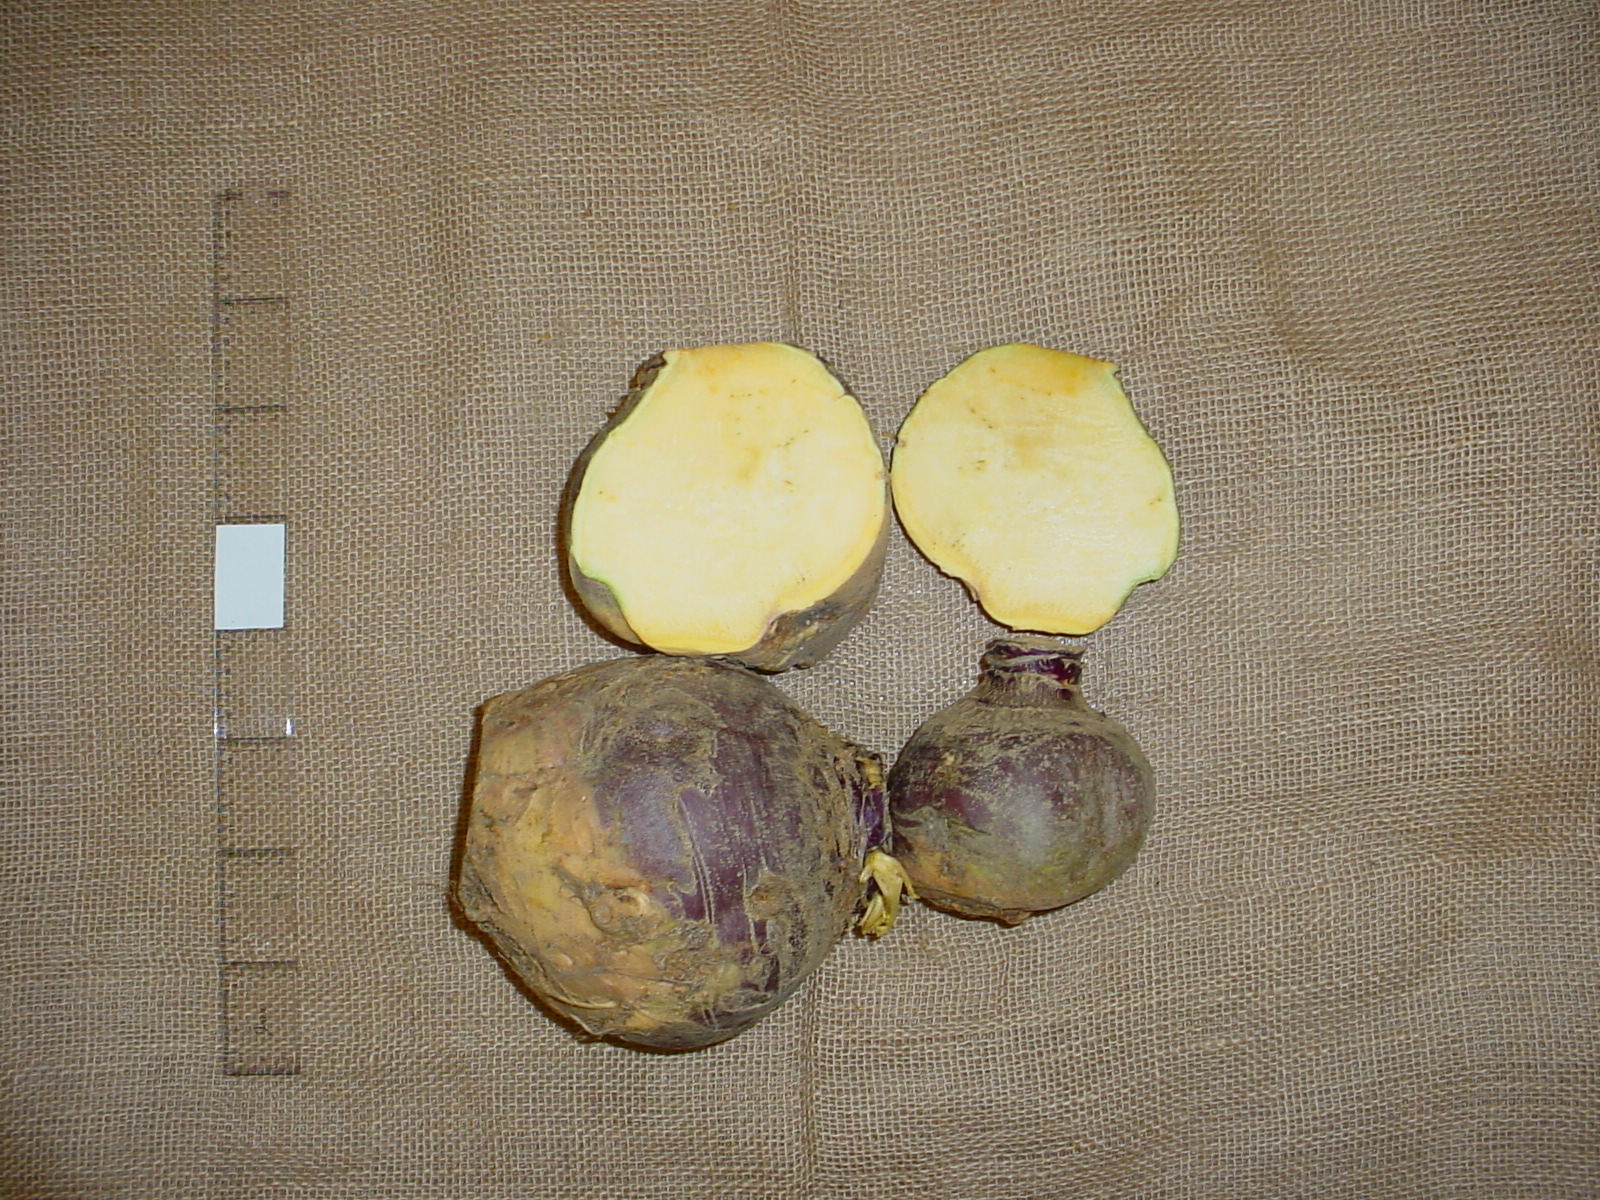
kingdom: Plantae
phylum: Tracheophyta
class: Magnoliopsida
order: Brassicales
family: Brassicaceae
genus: Brassica
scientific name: Brassica napus
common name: Rape
